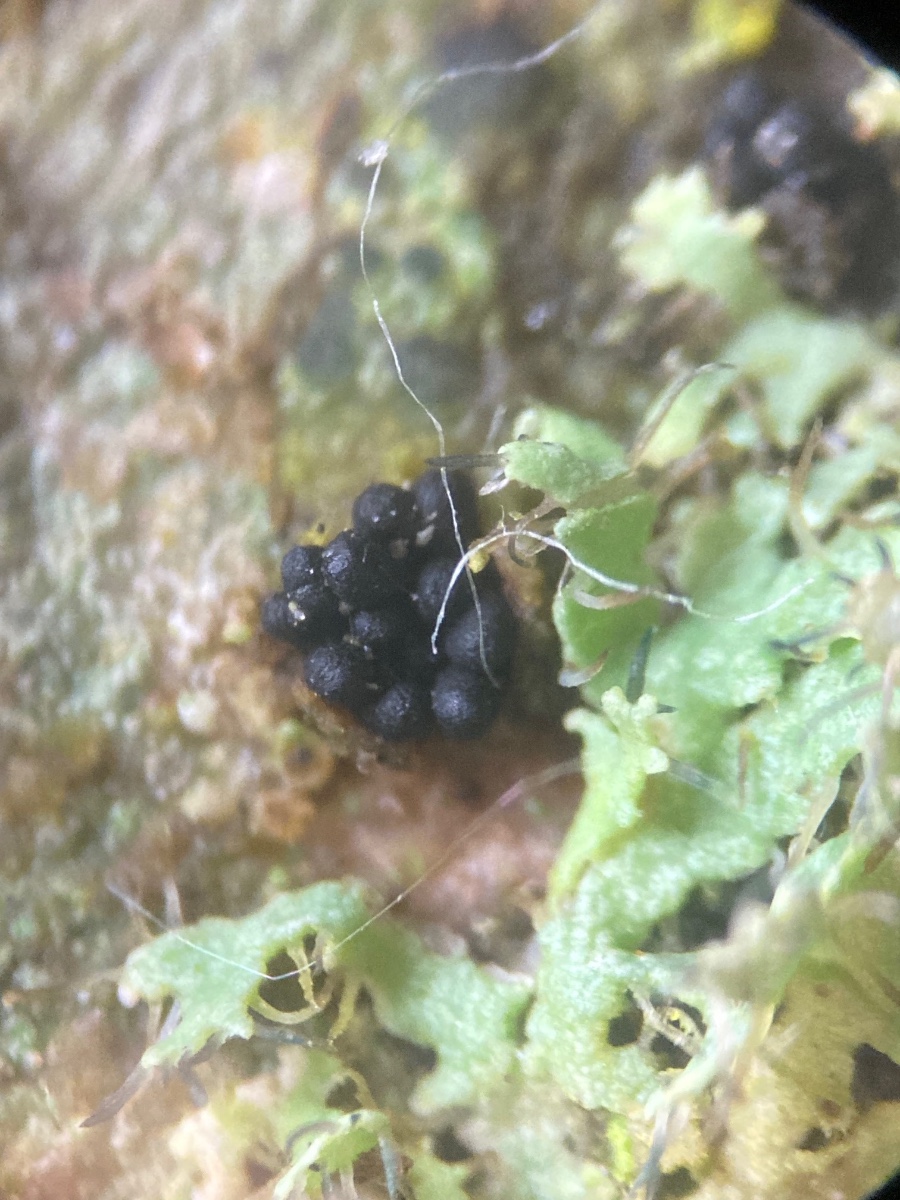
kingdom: Fungi
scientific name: Fungi
